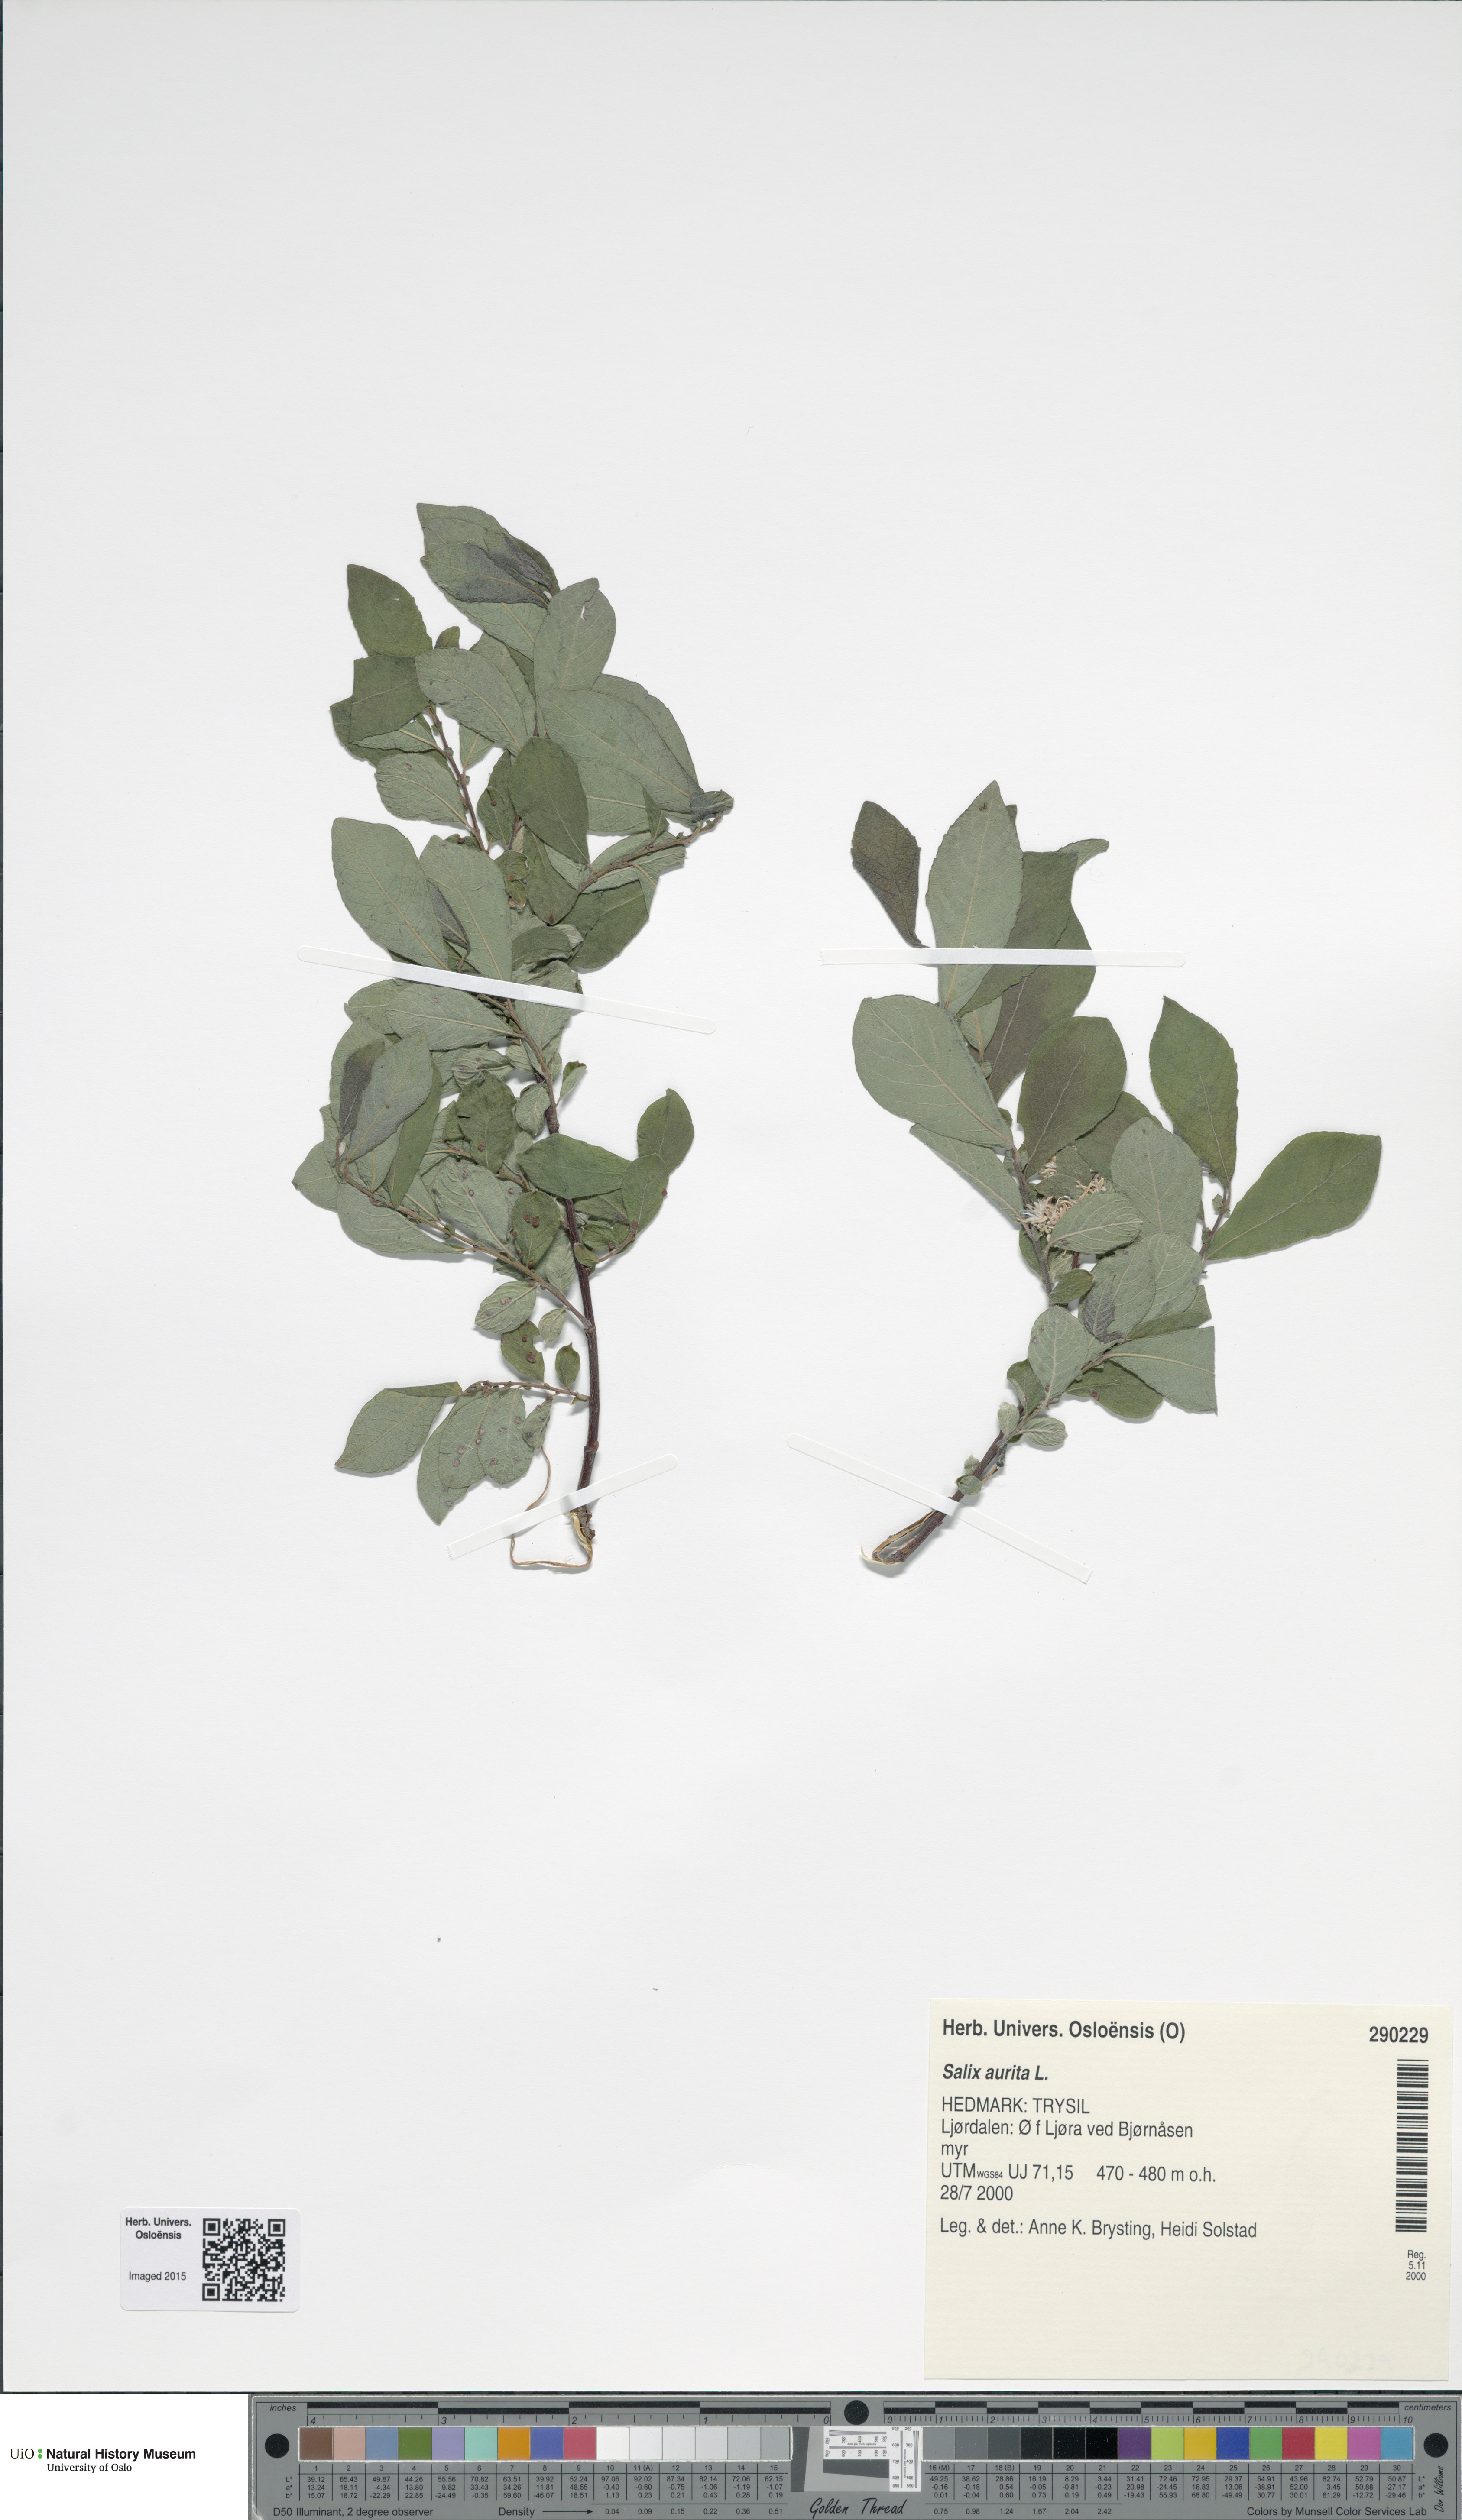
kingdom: Plantae
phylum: Tracheophyta
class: Magnoliopsida
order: Malpighiales
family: Salicaceae
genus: Salix
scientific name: Salix aurita
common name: Eared willow
